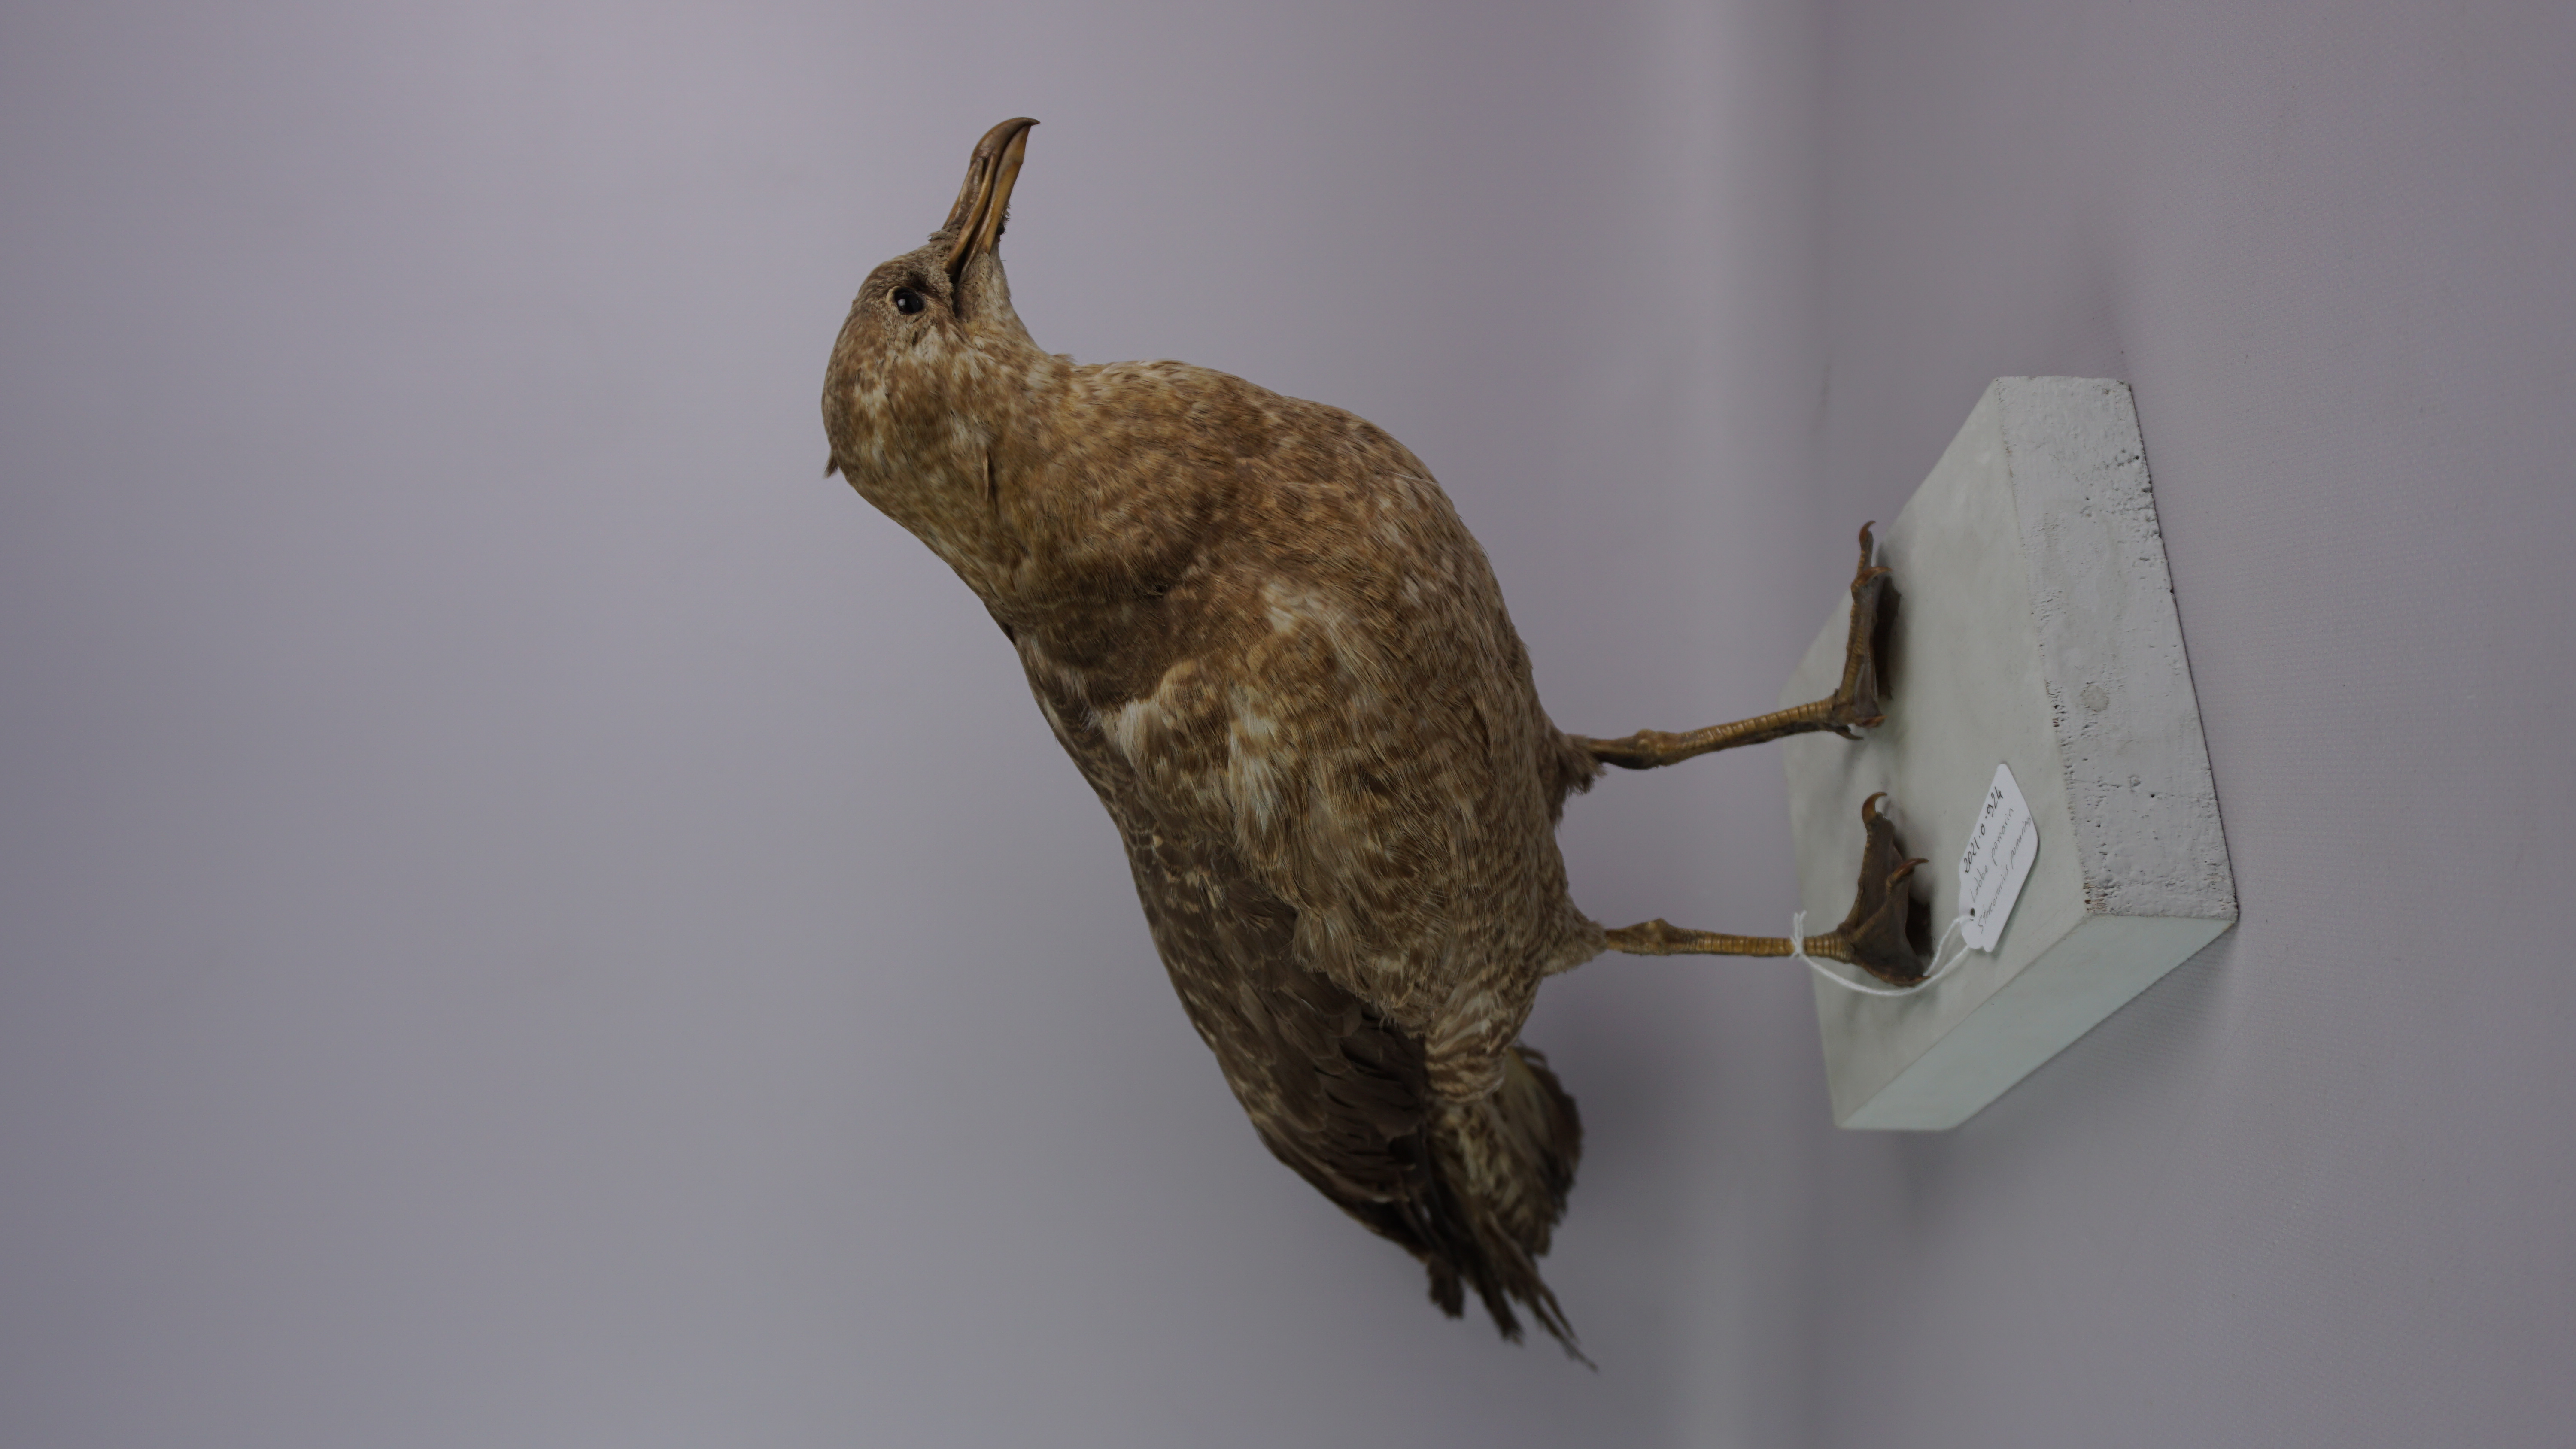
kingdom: Animalia
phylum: Chordata
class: Aves
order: Charadriiformes
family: Stercorariidae
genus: Stercorarius
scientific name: Stercorarius pomarinus
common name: Pomarine jaeger
